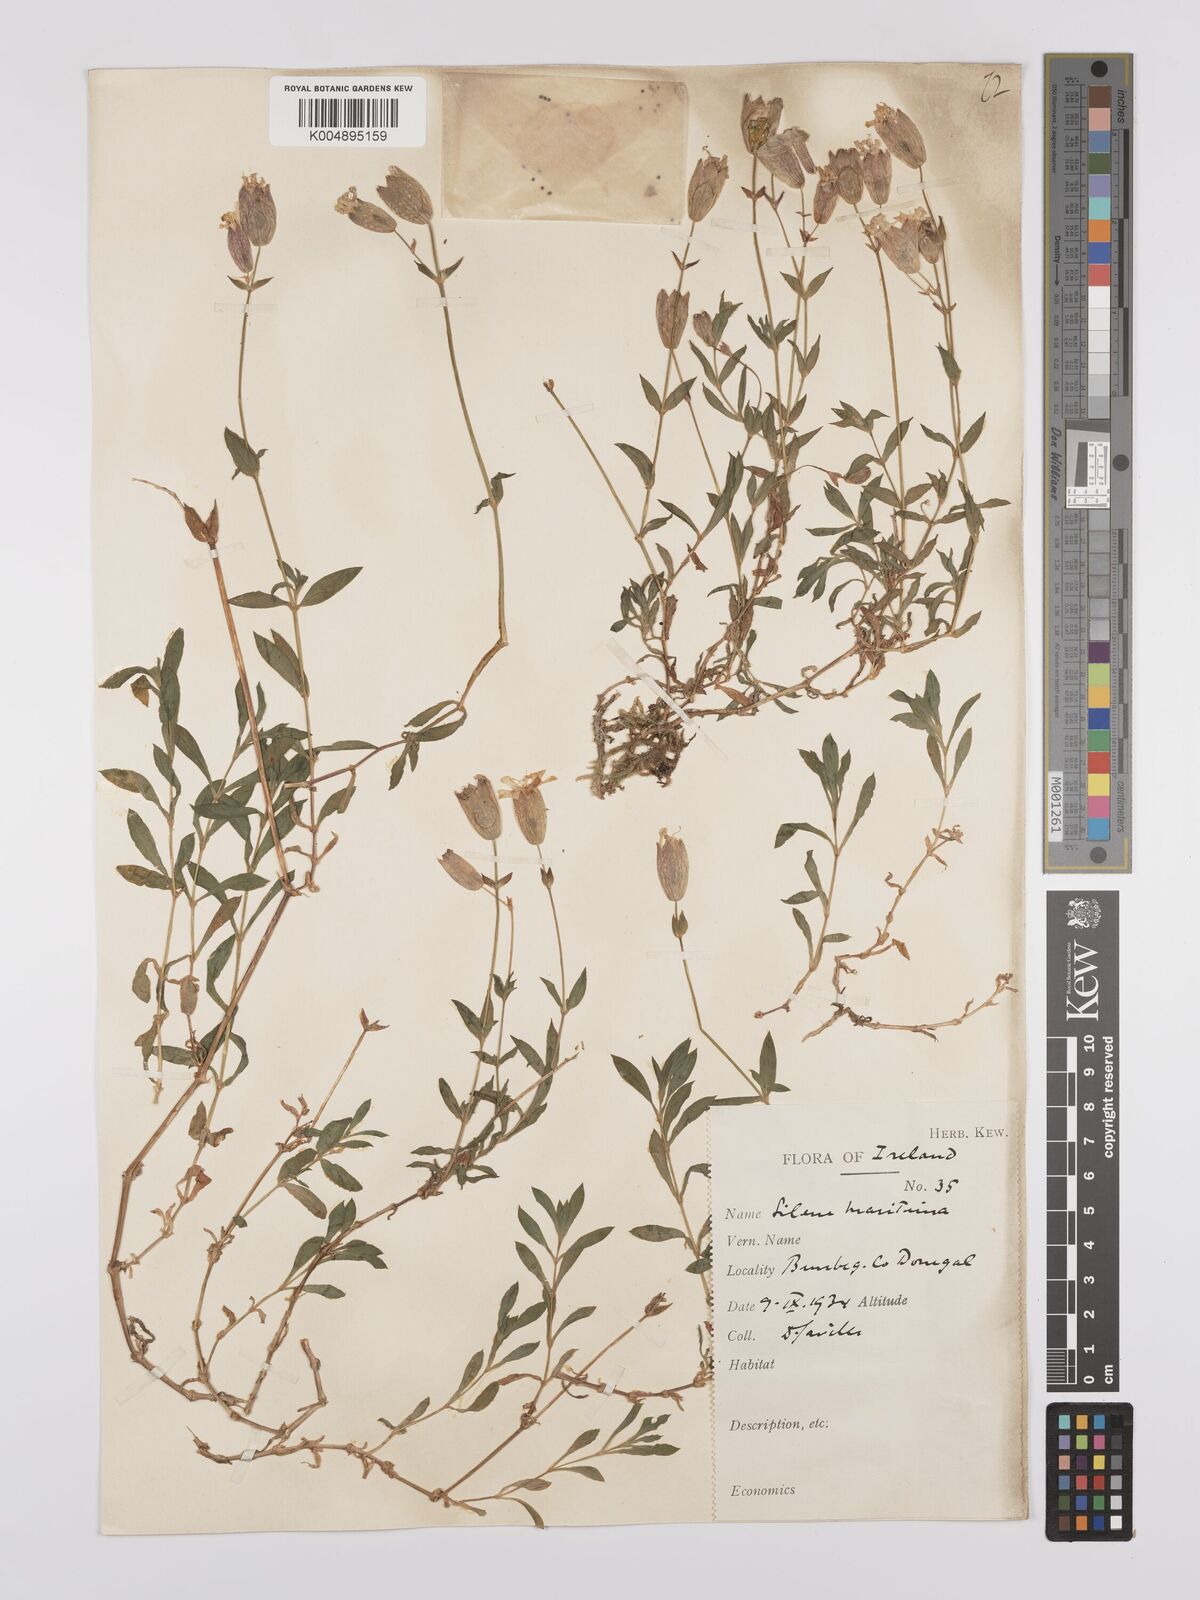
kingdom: Plantae
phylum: Tracheophyta
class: Magnoliopsida
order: Caryophyllales
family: Caryophyllaceae
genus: Silene
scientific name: Silene uniflora
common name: Sea campion
